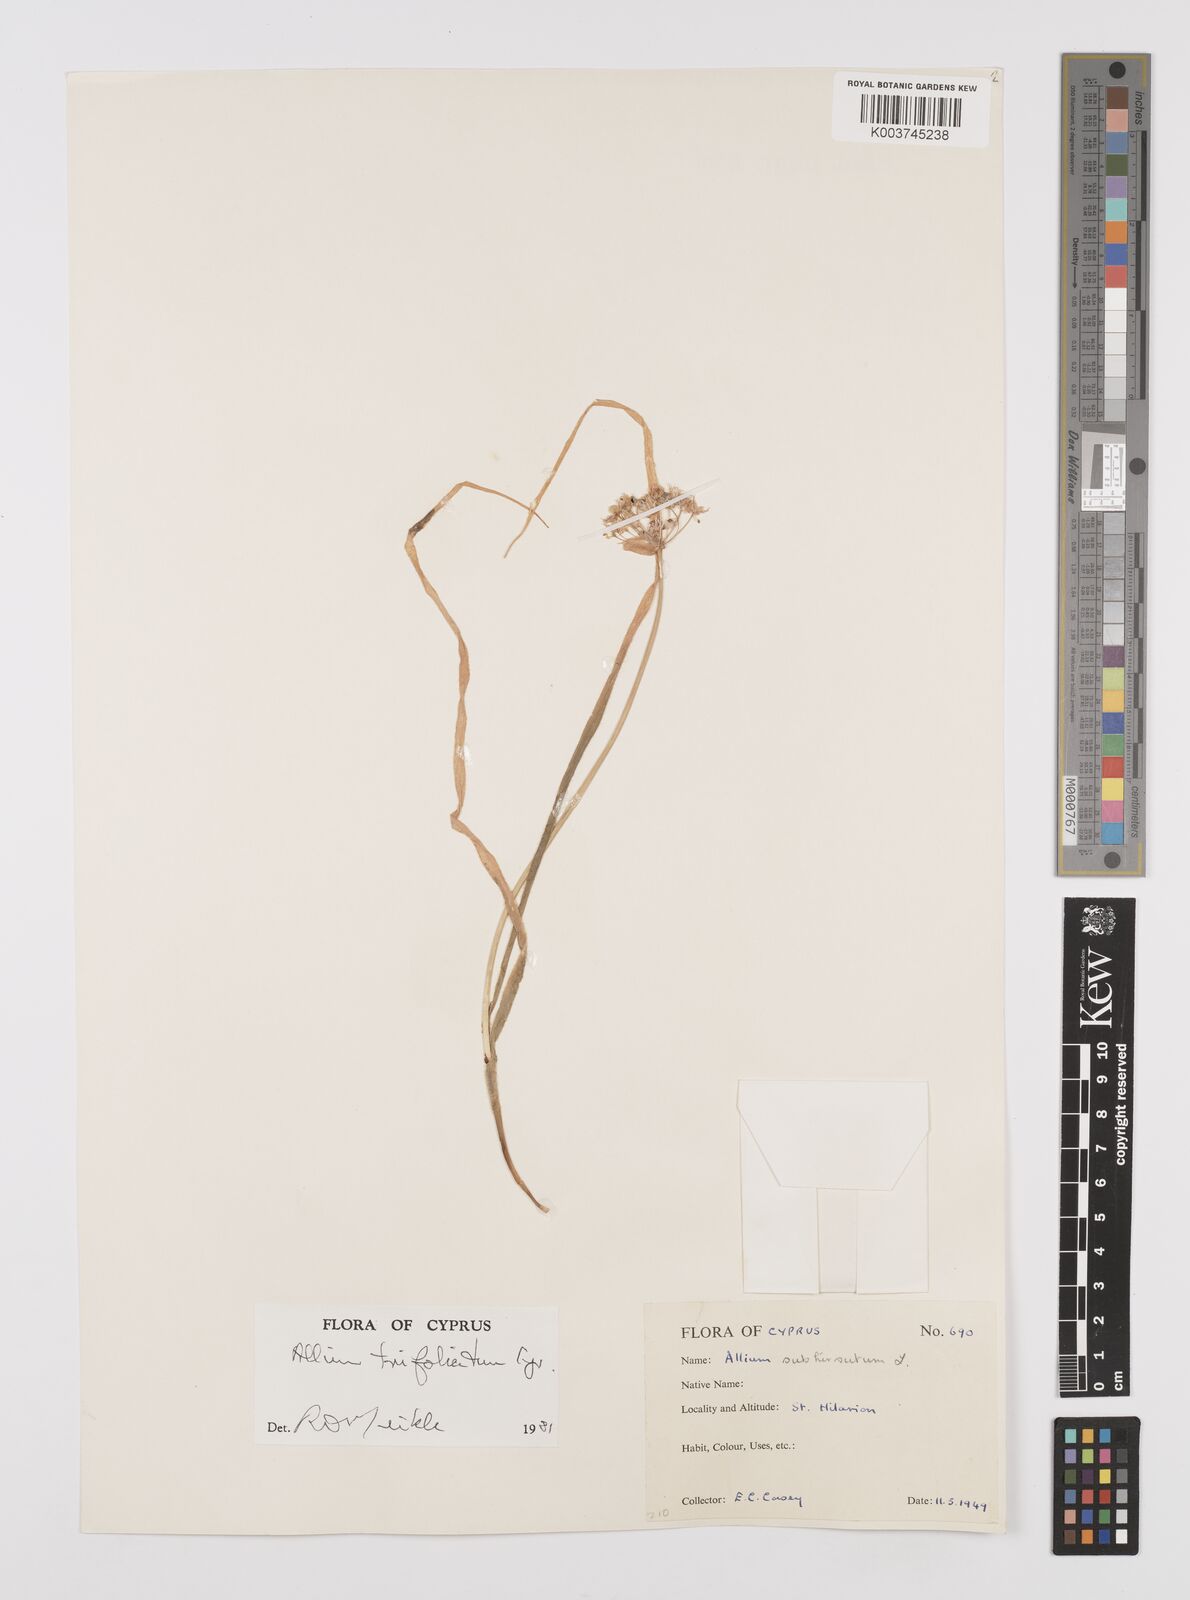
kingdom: Plantae
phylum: Tracheophyta
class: Liliopsida
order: Asparagales
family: Amaryllidaceae
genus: Allium
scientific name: Allium trifoliatum
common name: Pink garlic
